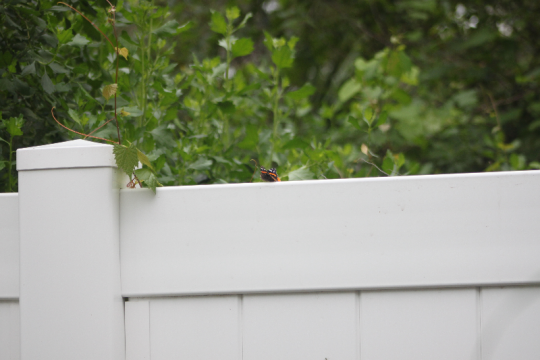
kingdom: Animalia
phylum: Arthropoda
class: Insecta
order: Lepidoptera
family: Nymphalidae
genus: Vanessa
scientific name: Vanessa atalanta
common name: Red Admiral
